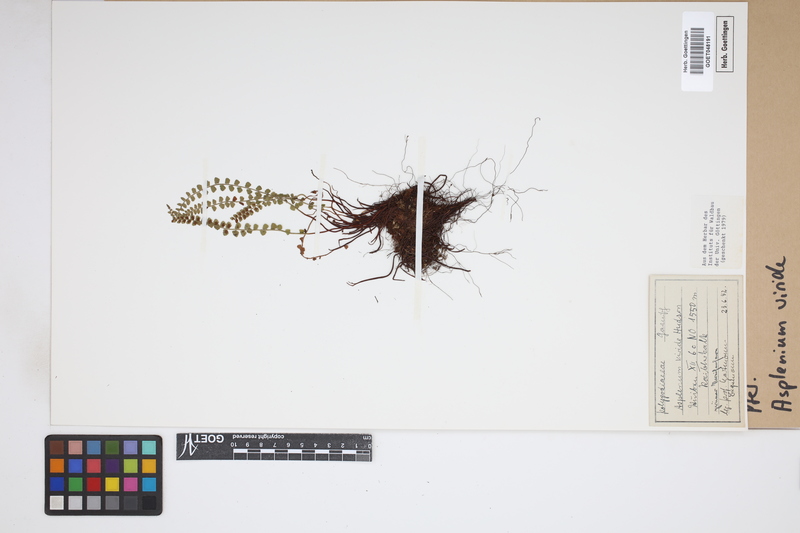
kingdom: Plantae
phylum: Tracheophyta
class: Polypodiopsida
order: Polypodiales
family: Aspleniaceae
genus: Asplenium
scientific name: Asplenium viride
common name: Green spleenwort
